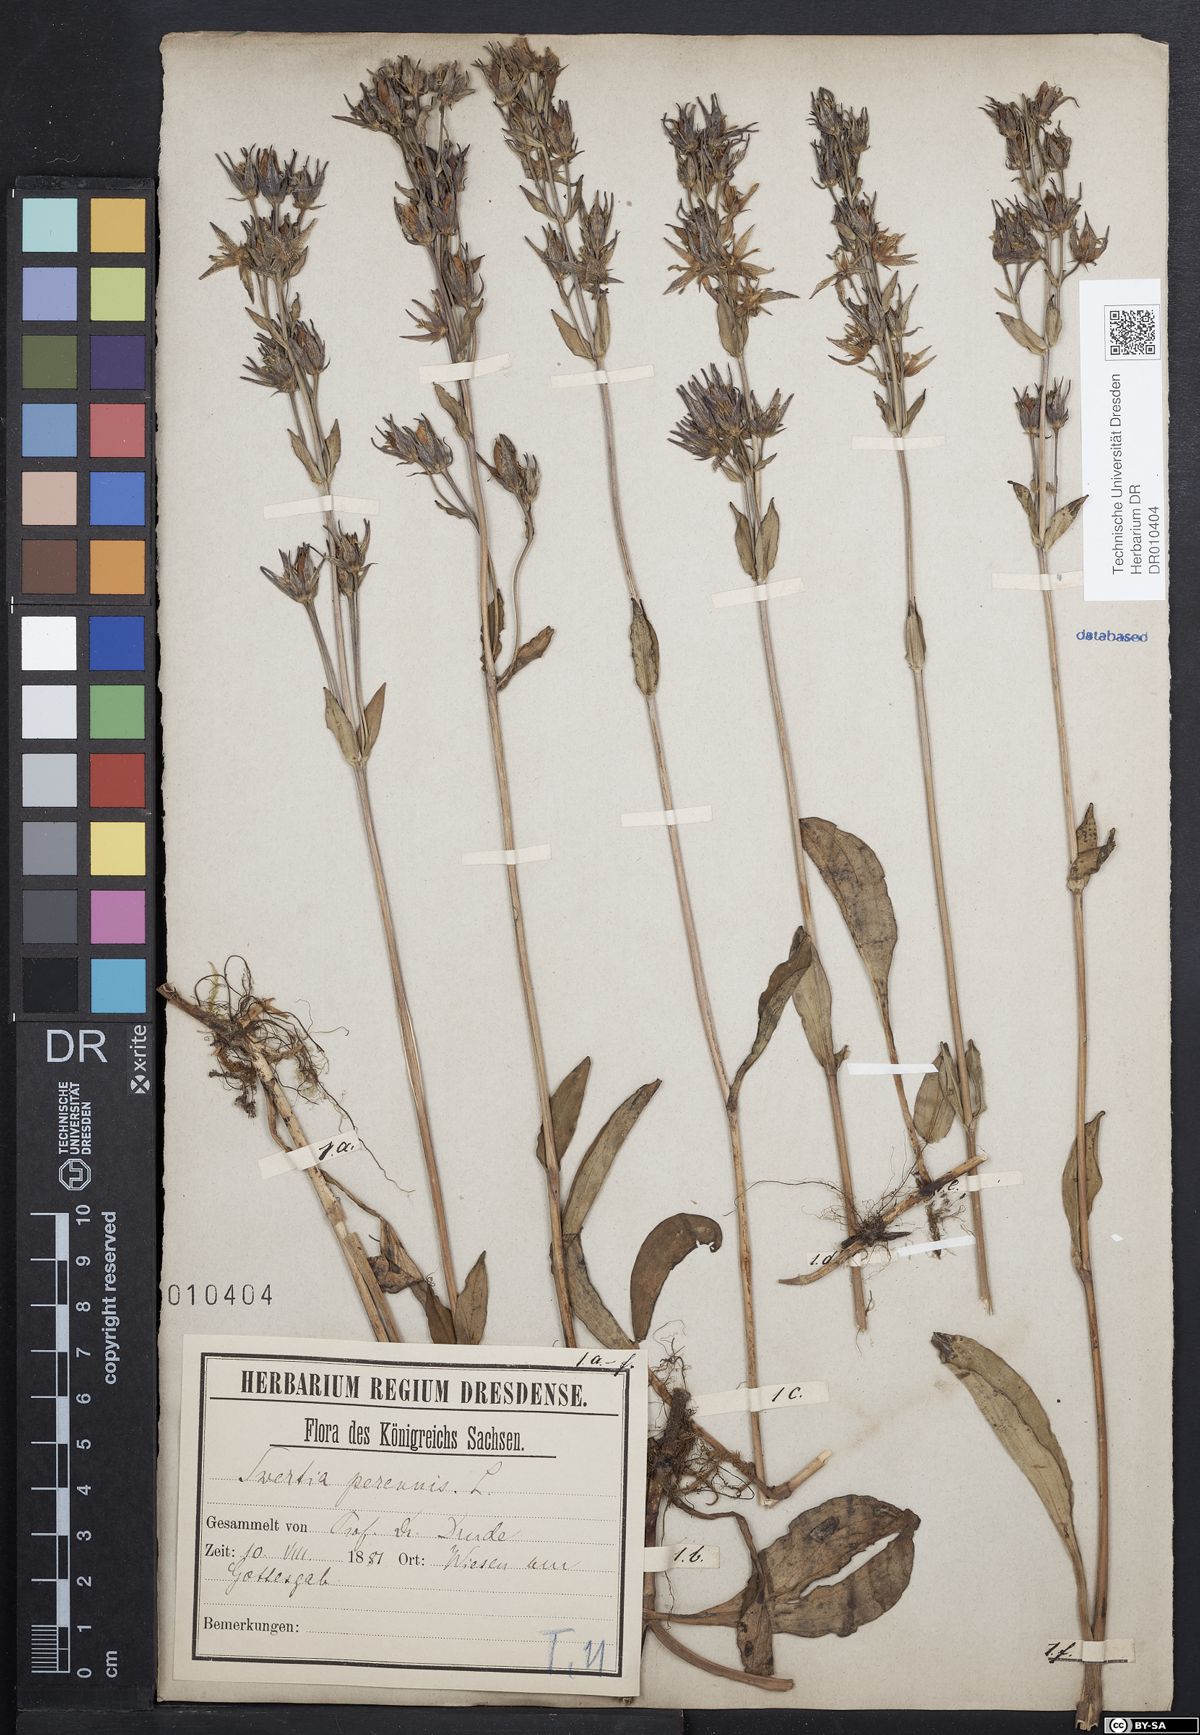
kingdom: Plantae
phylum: Tracheophyta
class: Magnoliopsida
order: Gentianales
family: Gentianaceae
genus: Swertia
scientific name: Swertia perennis
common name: Alpine bog swertia
